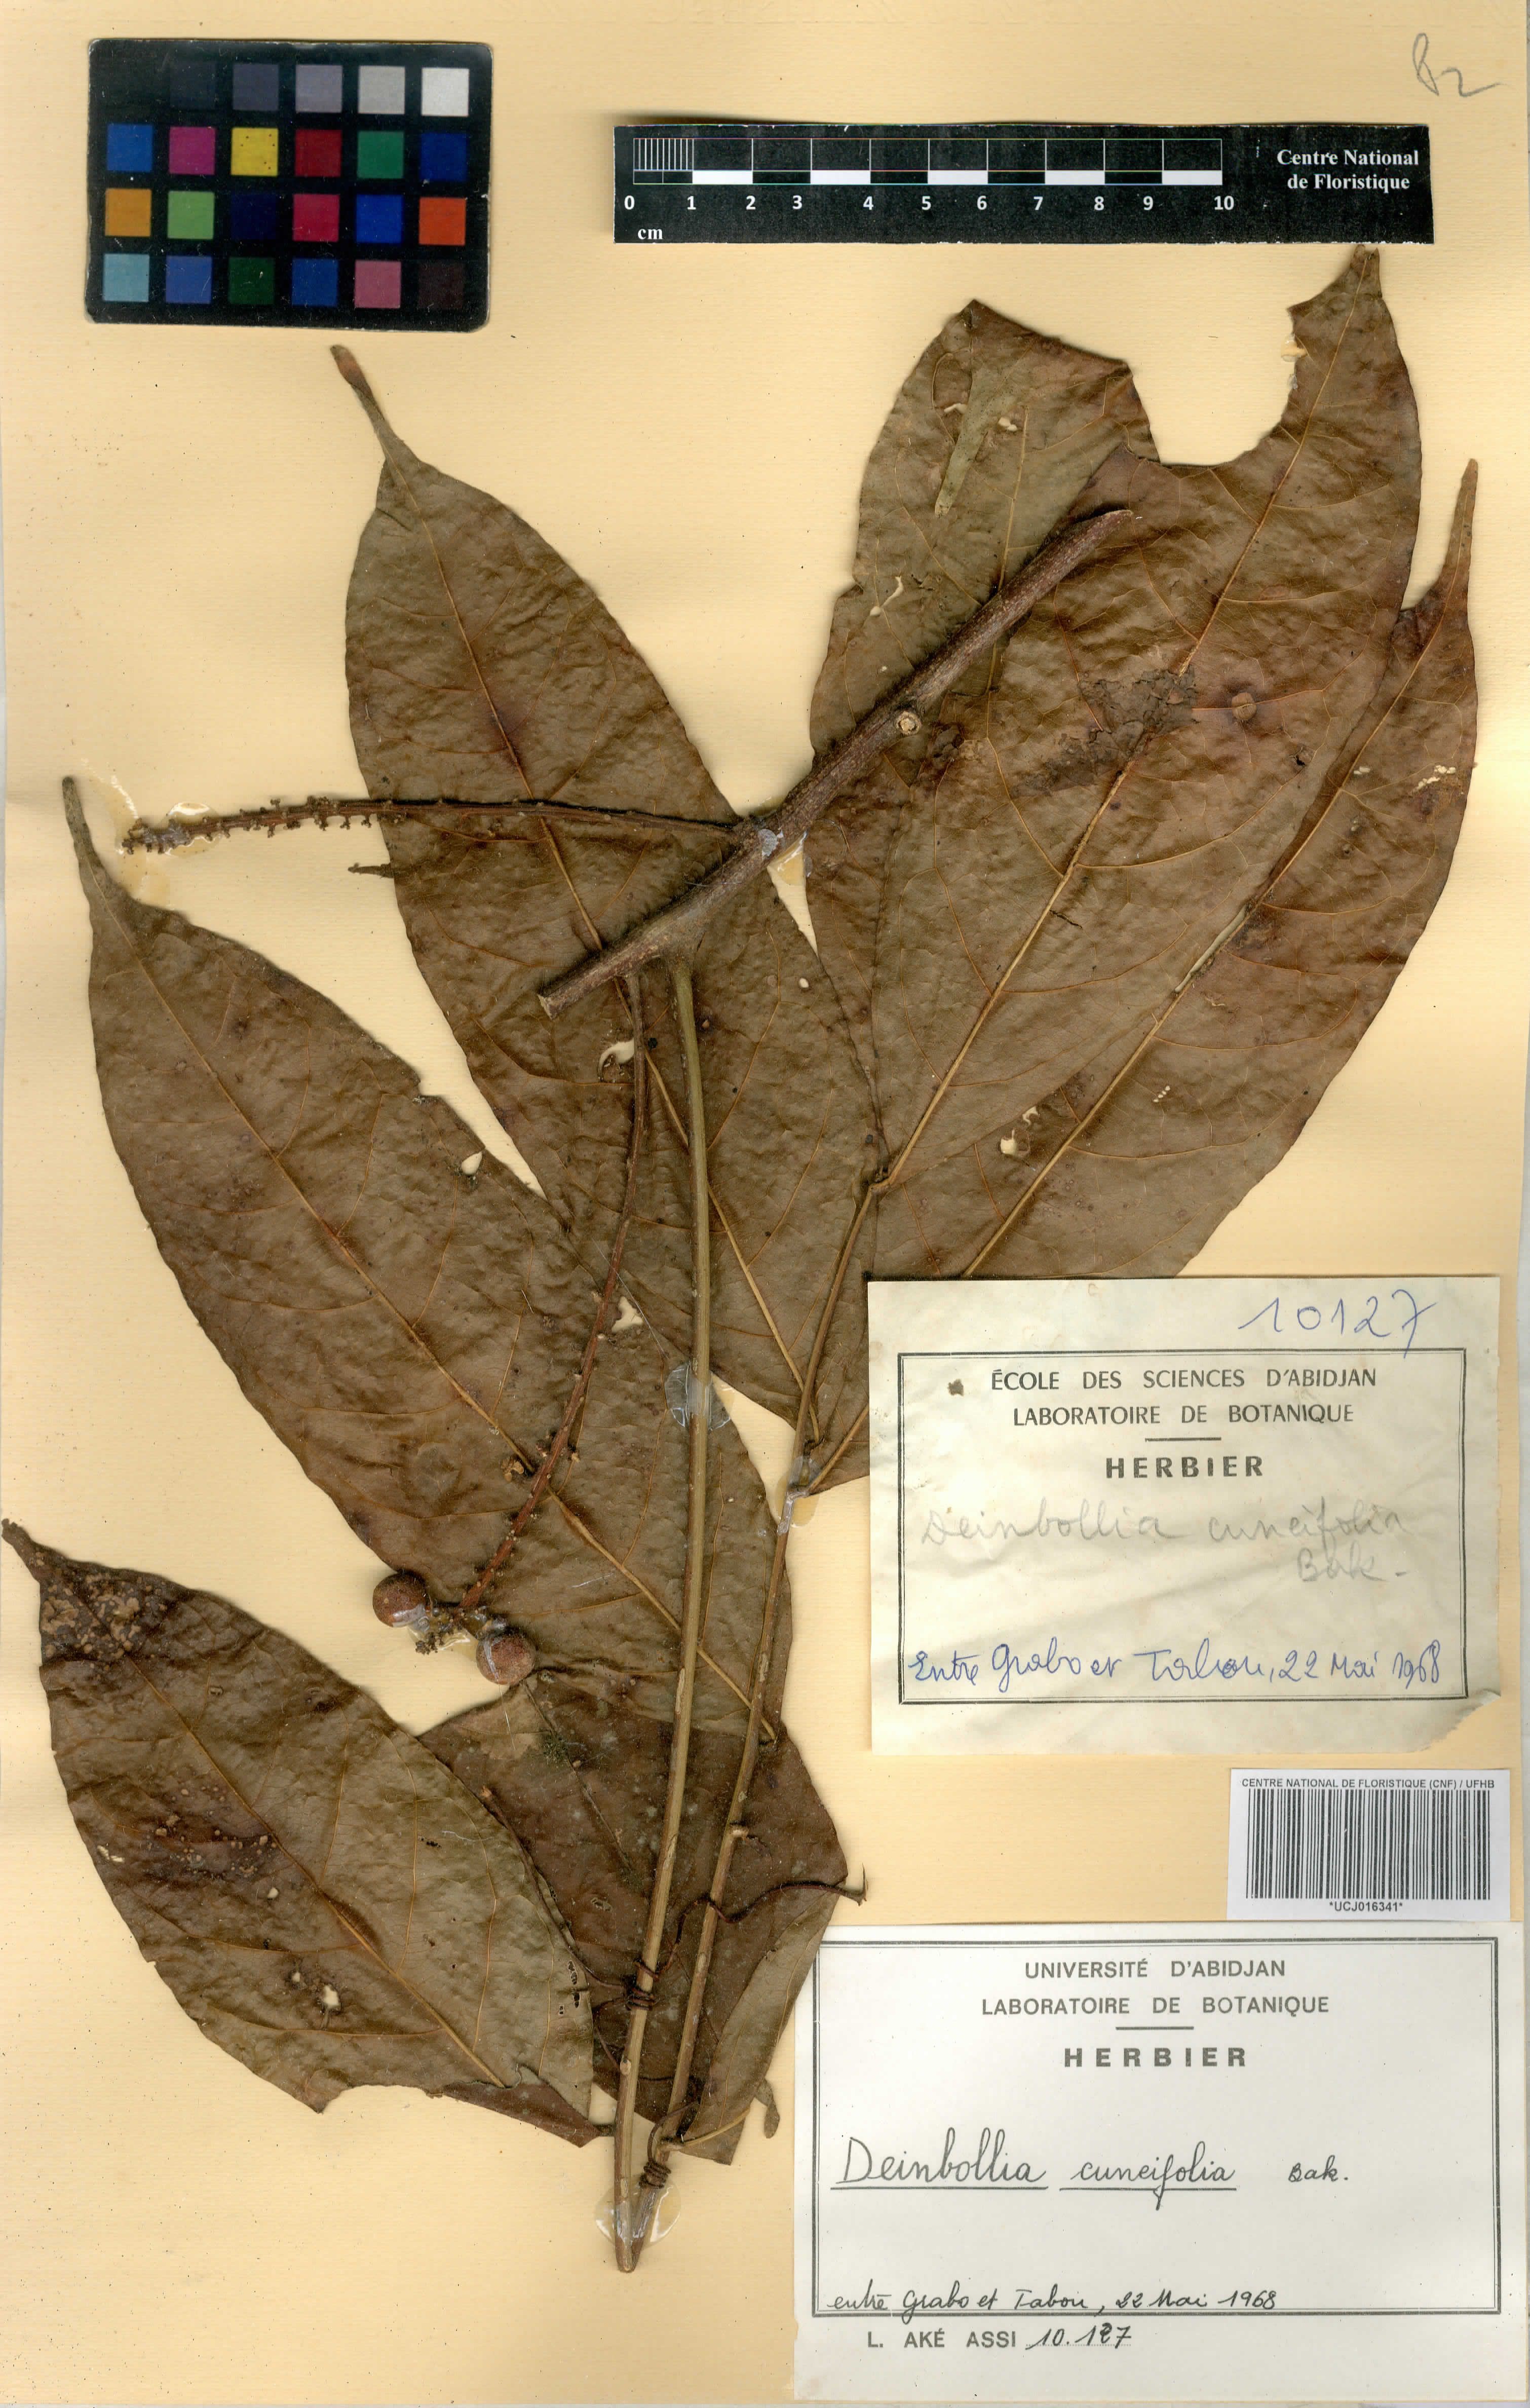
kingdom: Plantae
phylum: Tracheophyta
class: Magnoliopsida
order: Sapindales
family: Sapindaceae
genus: Deinbollia
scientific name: Deinbollia cuneifolia
